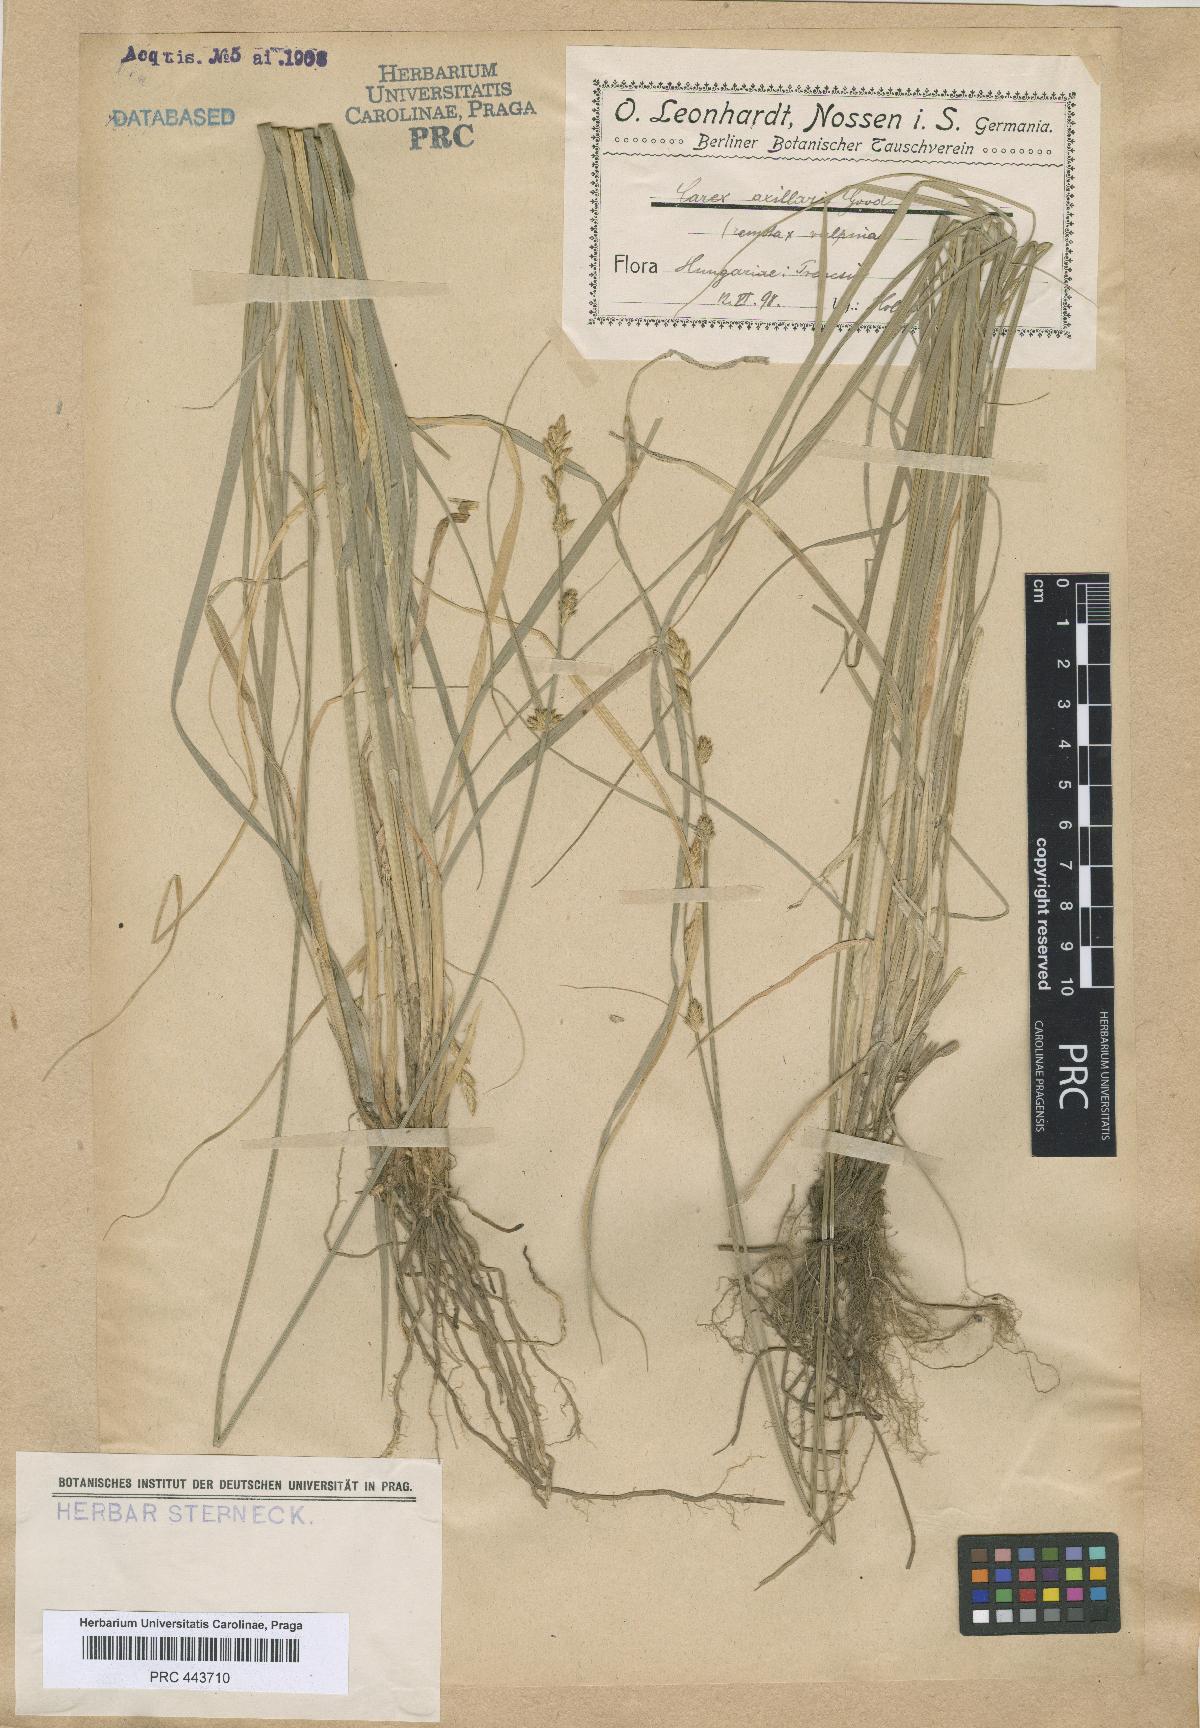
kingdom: Plantae
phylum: Tracheophyta
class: Liliopsida
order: Poales
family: Cyperaceae
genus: Carex
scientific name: Carex pseudoaxillaris
